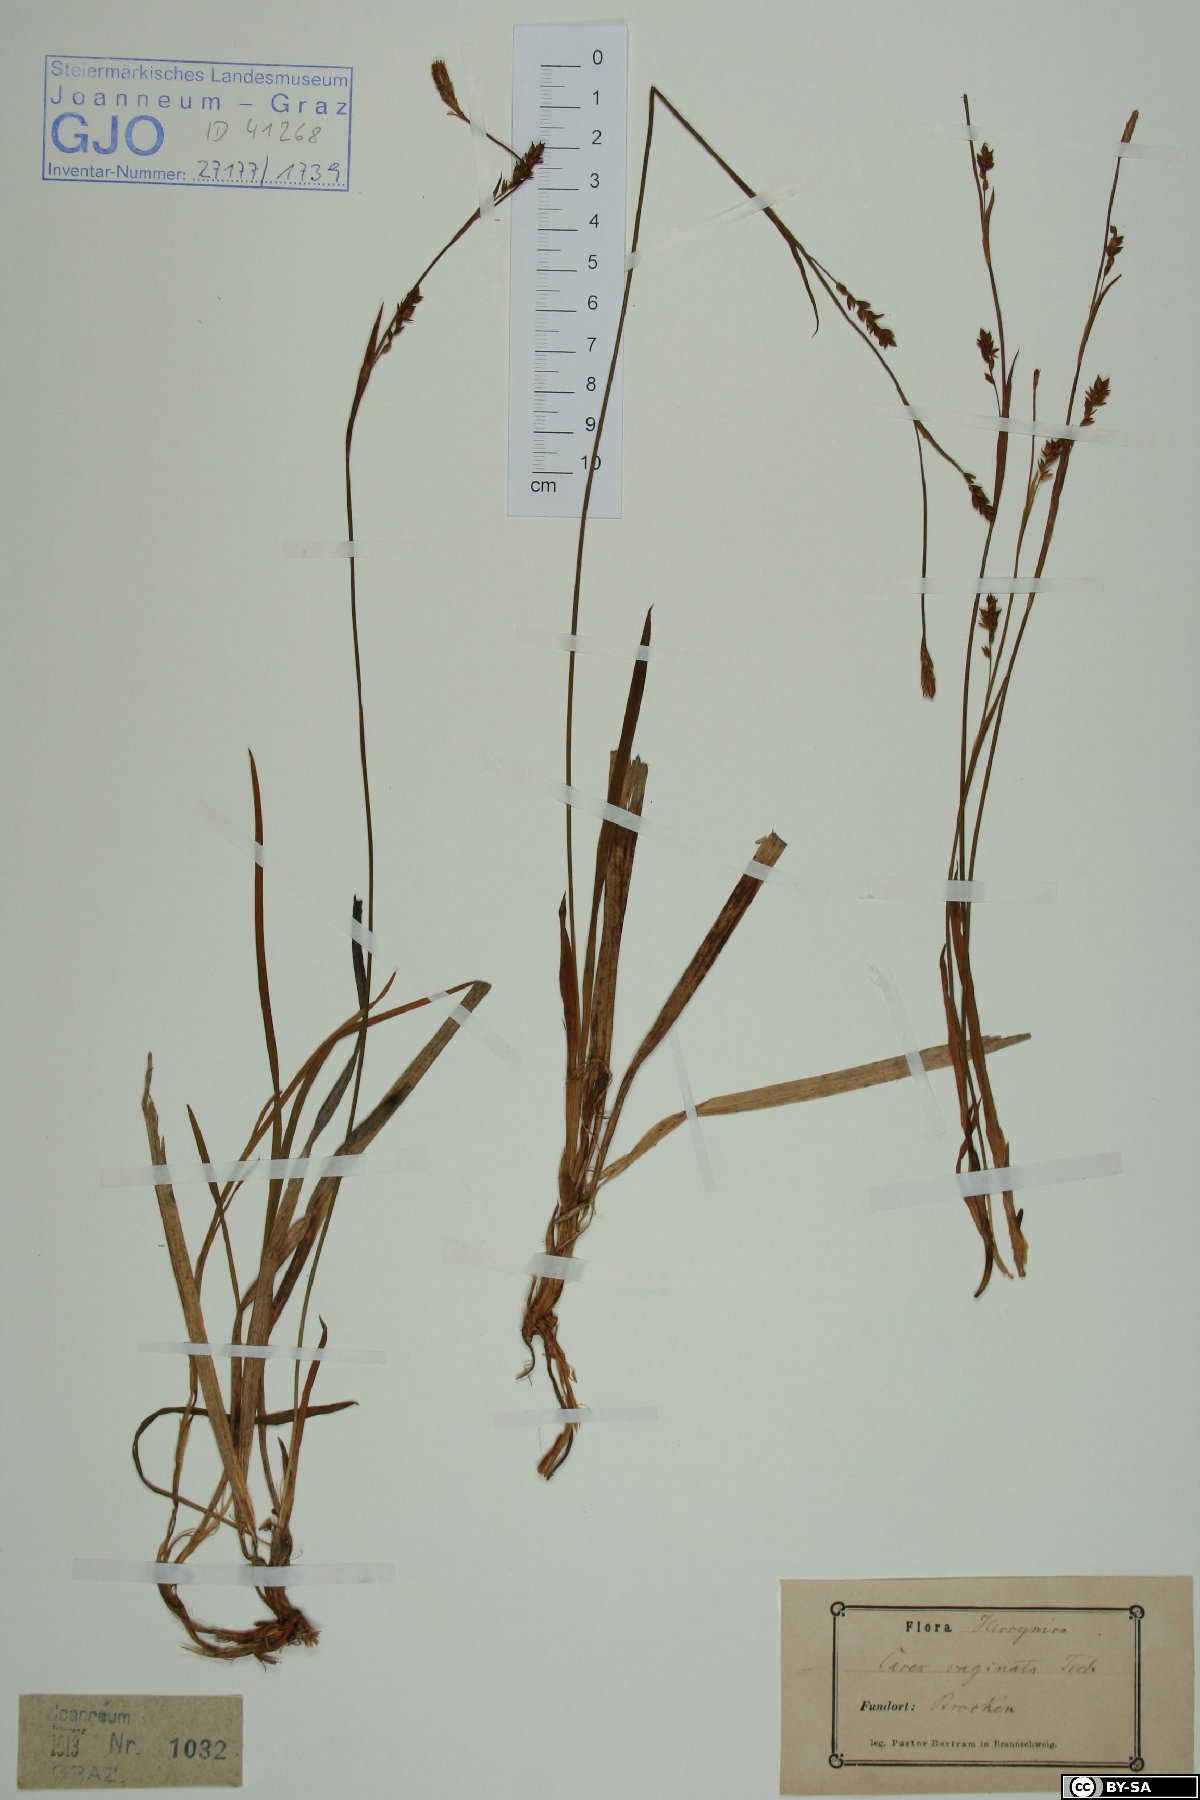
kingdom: Plantae
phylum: Tracheophyta
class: Liliopsida
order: Poales
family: Cyperaceae
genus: Carex
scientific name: Carex vaginata
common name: Sheathed sedge
